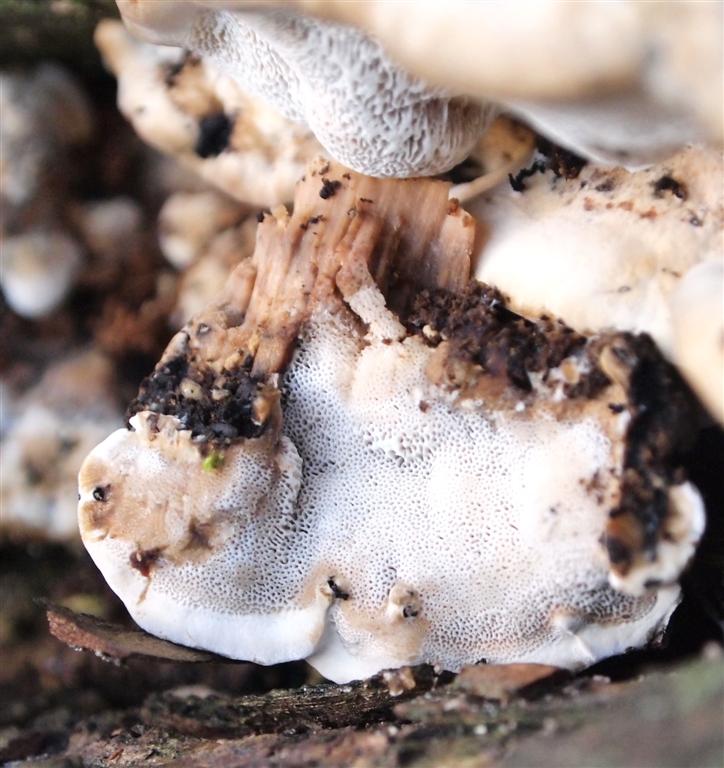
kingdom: Fungi
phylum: Basidiomycota
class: Agaricomycetes
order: Polyporales
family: Phanerochaetaceae
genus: Bjerkandera
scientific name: Bjerkandera fumosa
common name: grågul sodporesvamp
